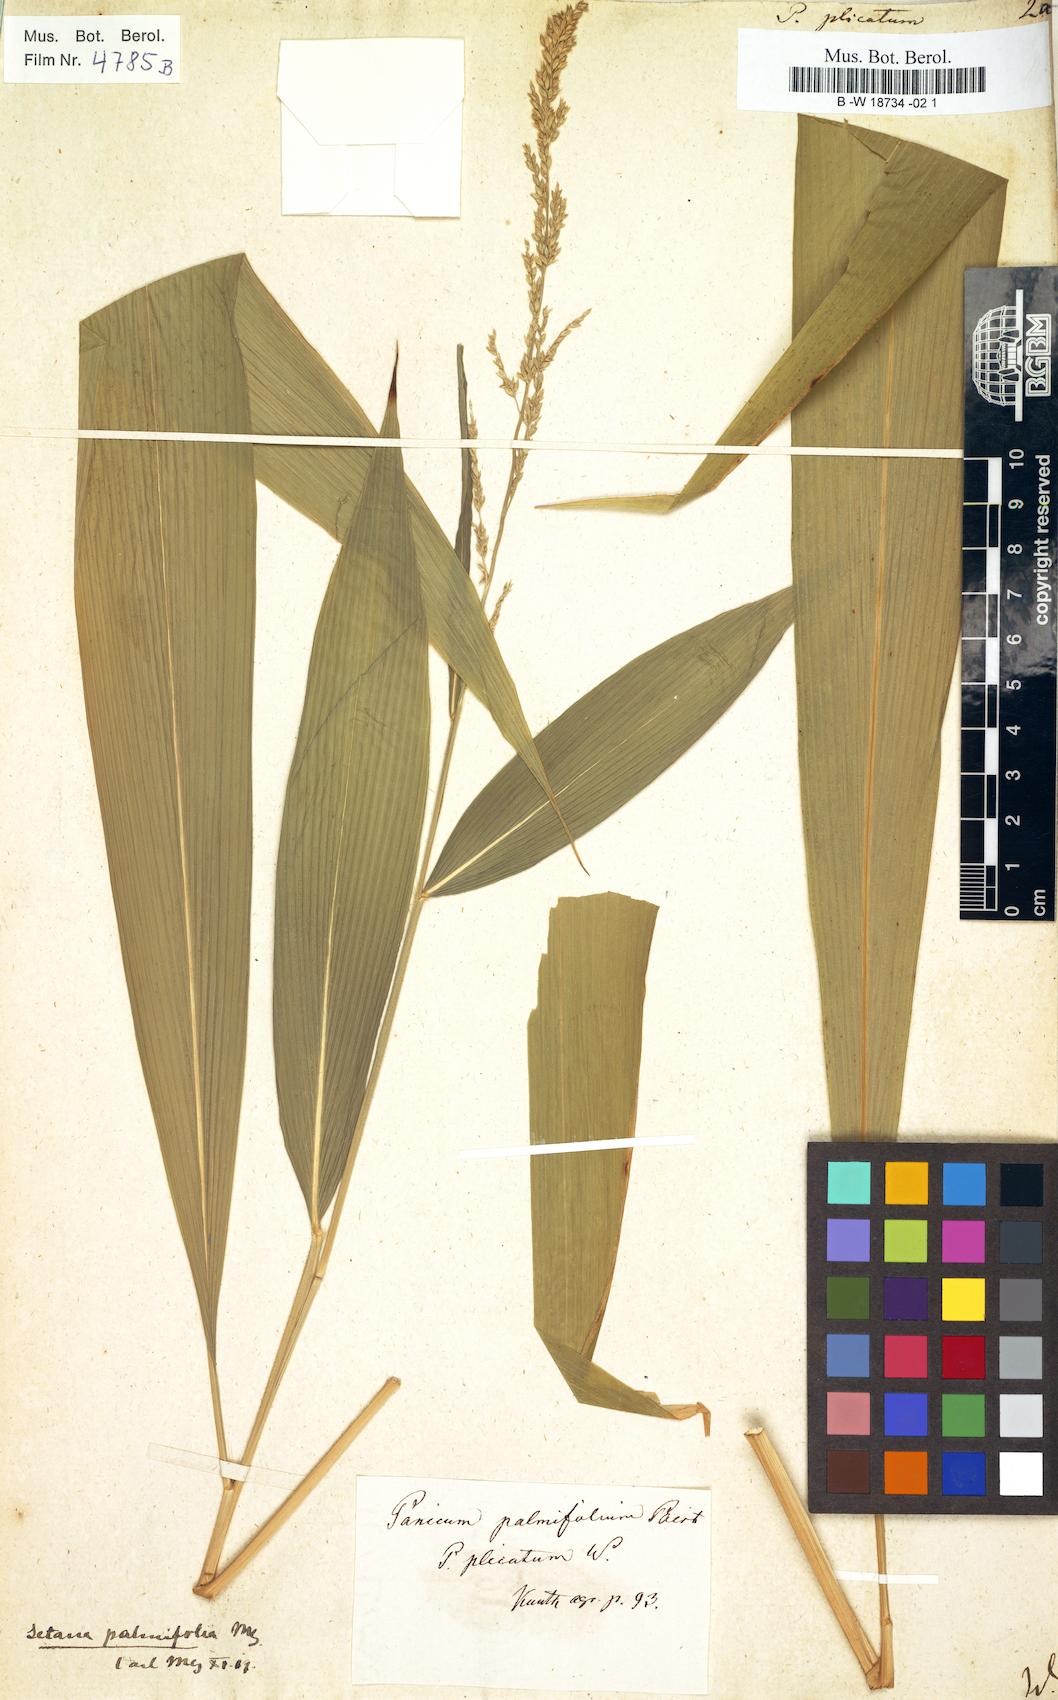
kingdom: Plantae
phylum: Tracheophyta
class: Liliopsida
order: Poales
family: Poaceae
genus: Setaria
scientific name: Setaria plicata
